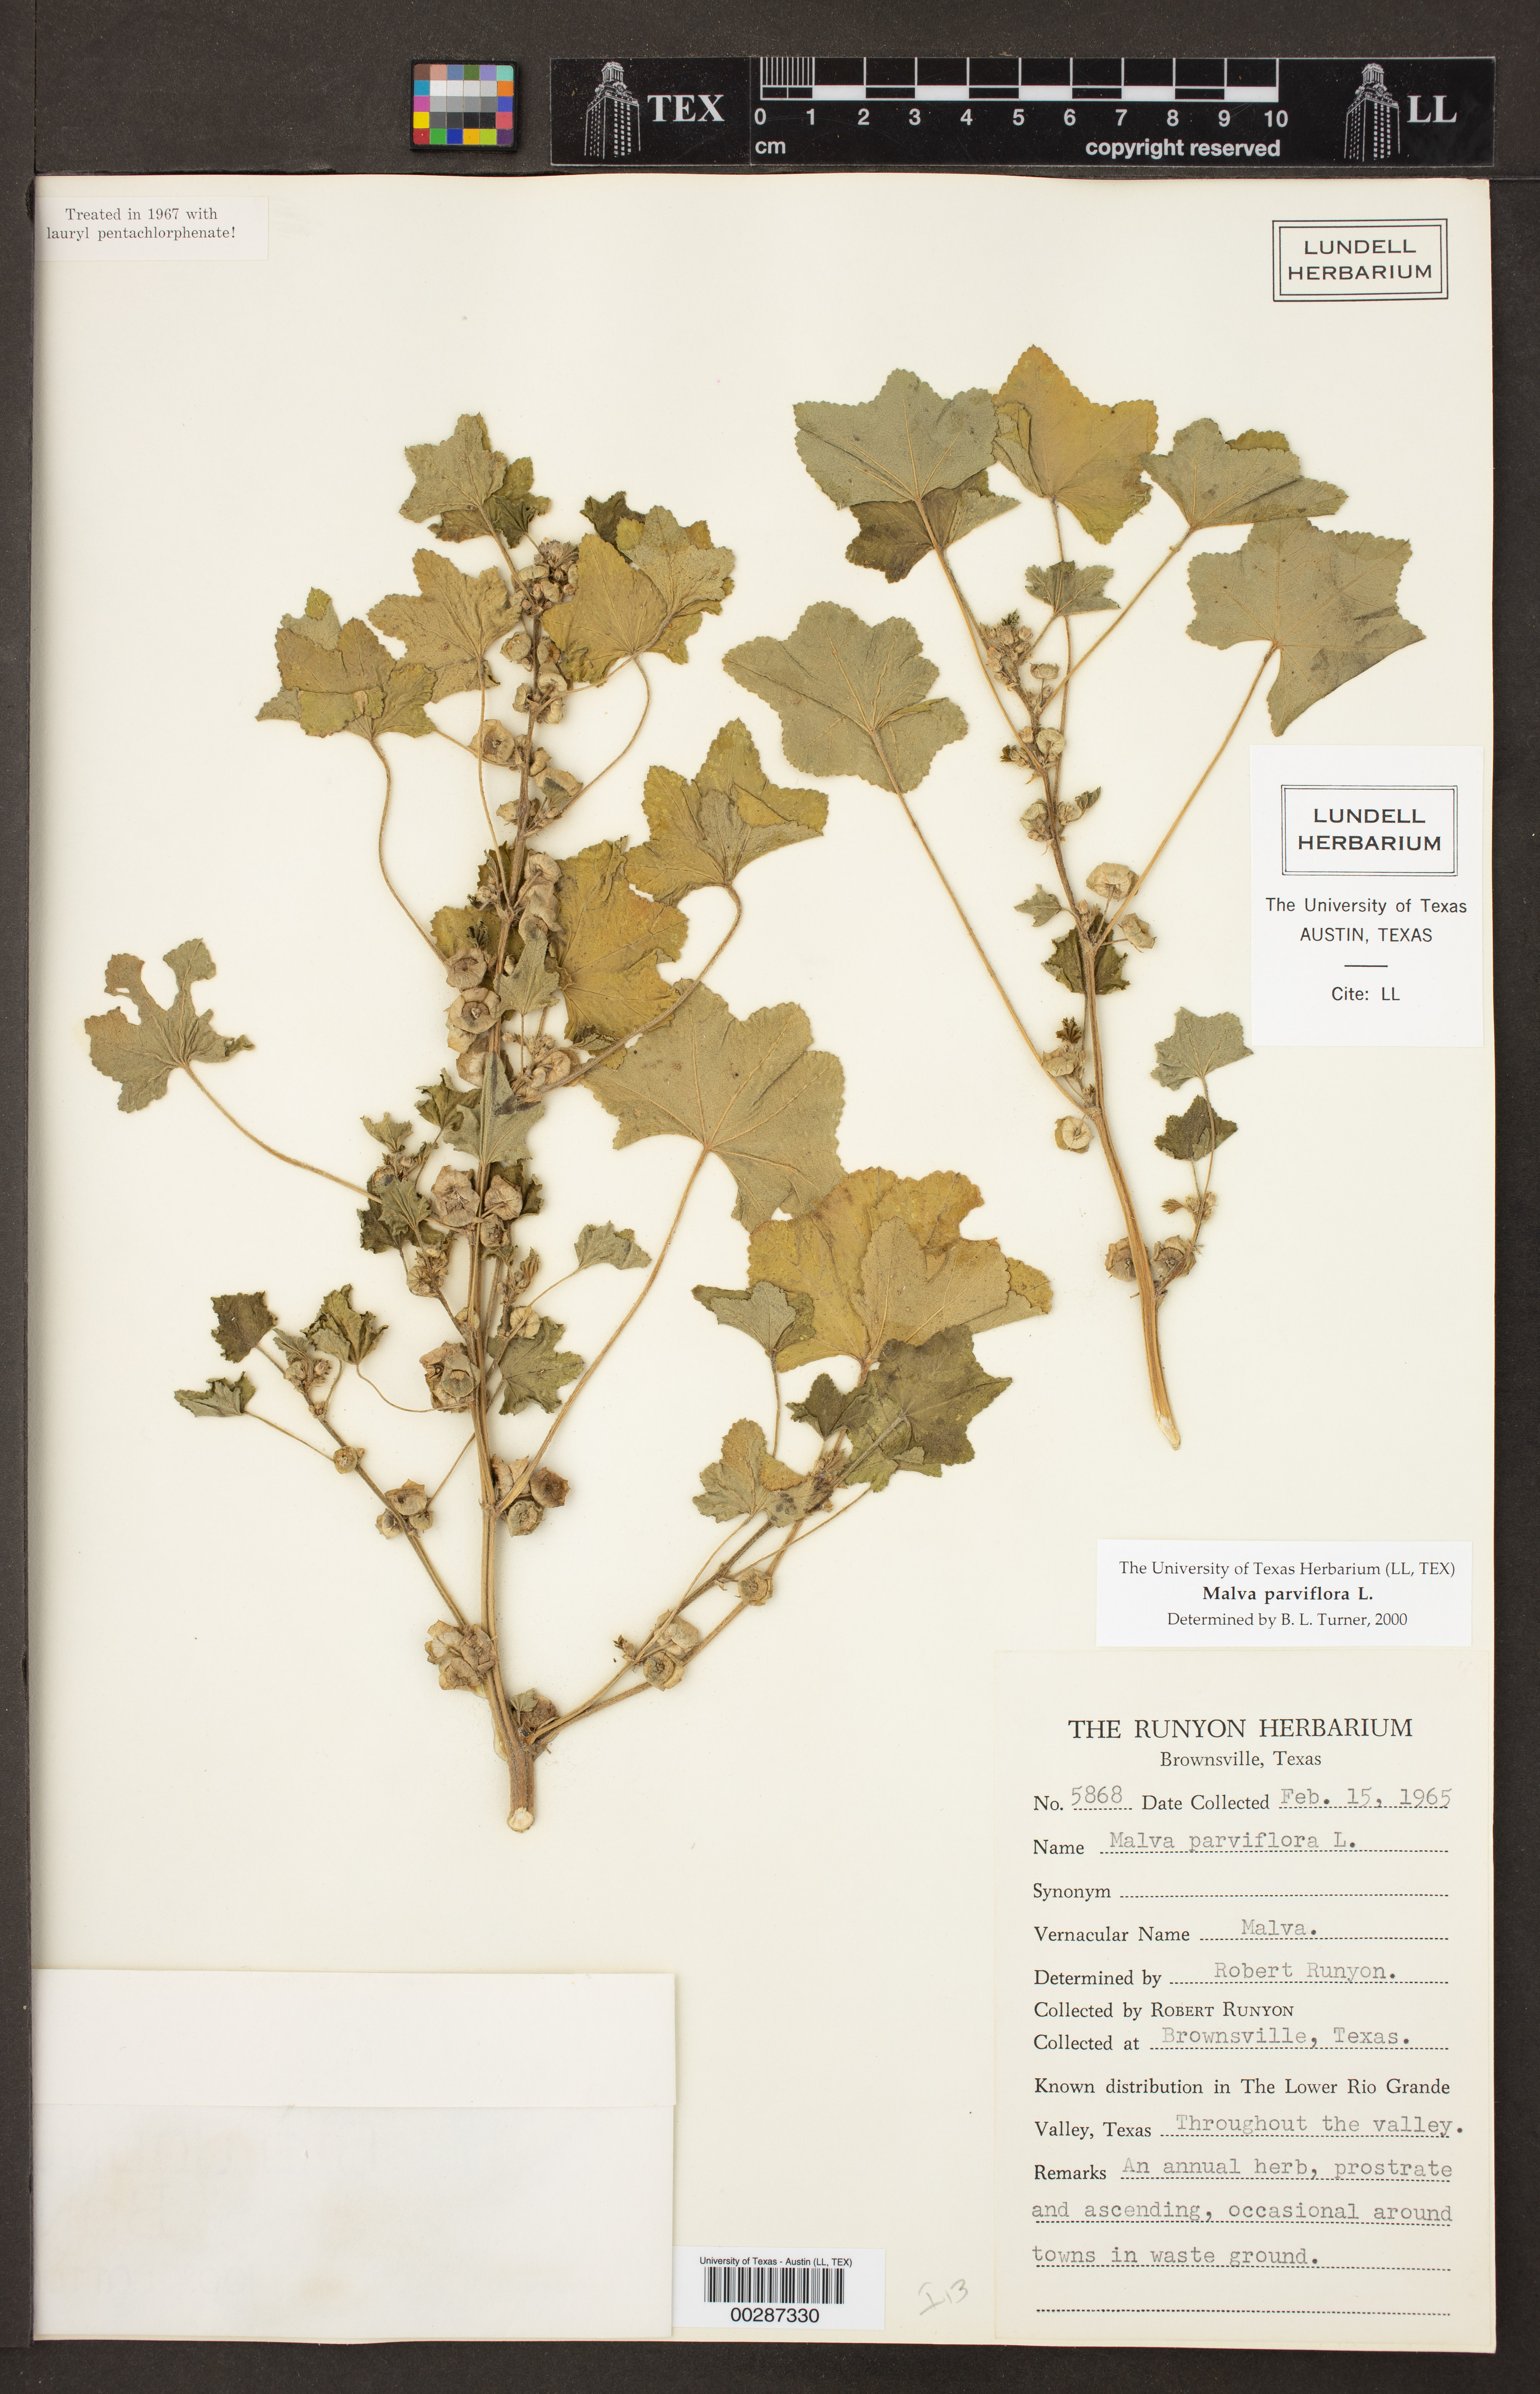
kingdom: Plantae
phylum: Tracheophyta
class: Magnoliopsida
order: Malvales
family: Malvaceae
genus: Malva
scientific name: Malva parviflora
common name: Least mallow
